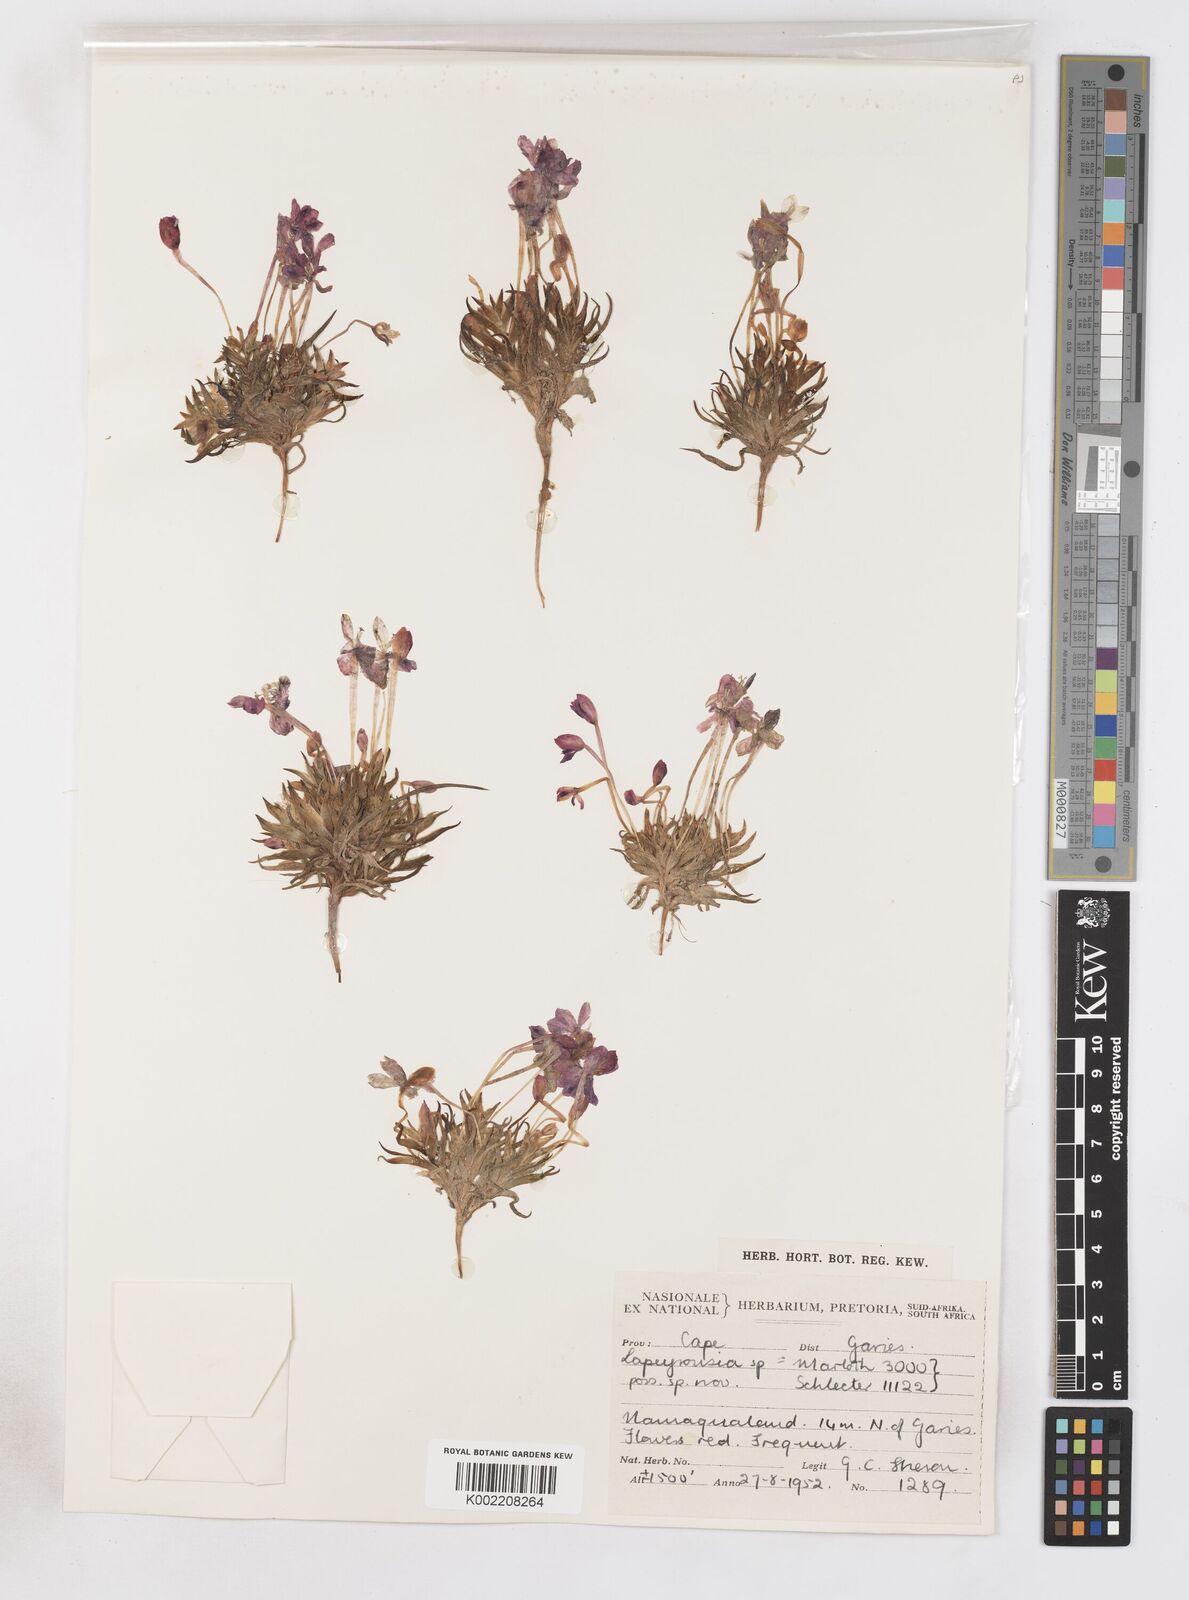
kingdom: Plantae
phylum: Tracheophyta
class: Liliopsida
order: Asparagales
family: Iridaceae
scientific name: Iridaceae
